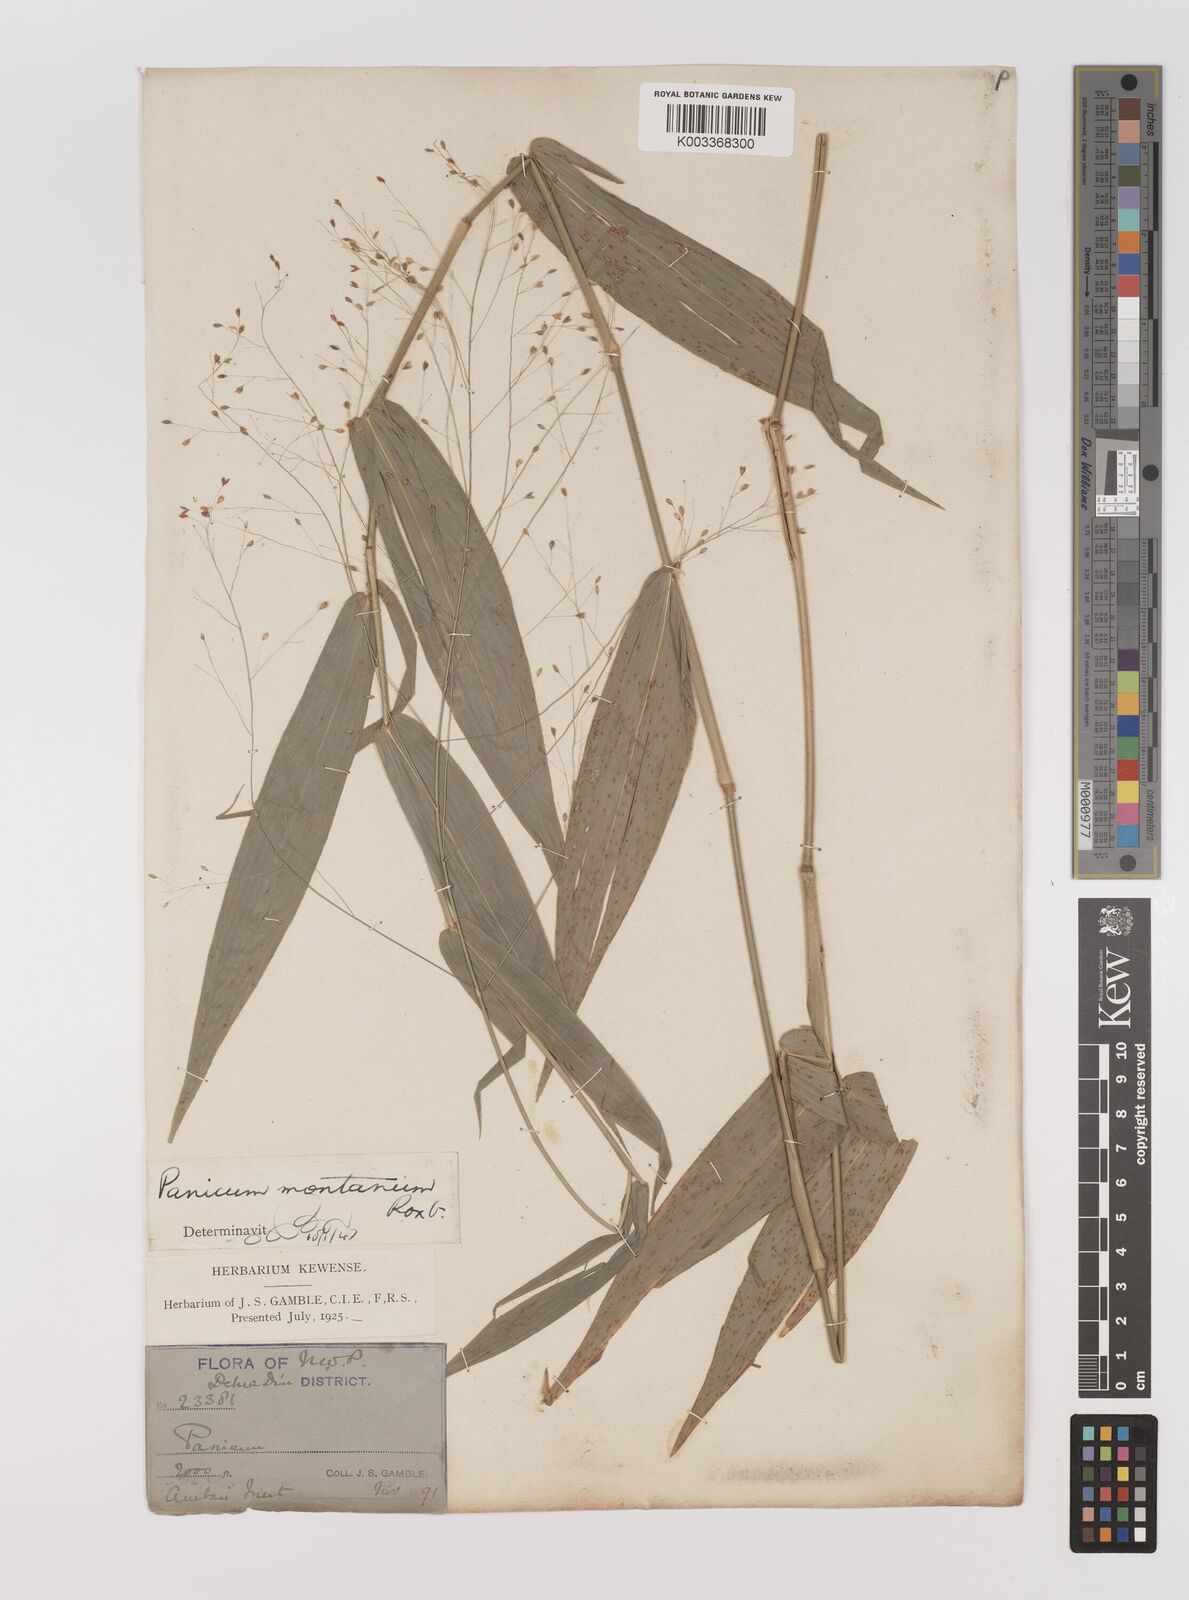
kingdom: Plantae
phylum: Tracheophyta
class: Liliopsida
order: Poales
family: Poaceae
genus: Panicum
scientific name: Panicum notatum
